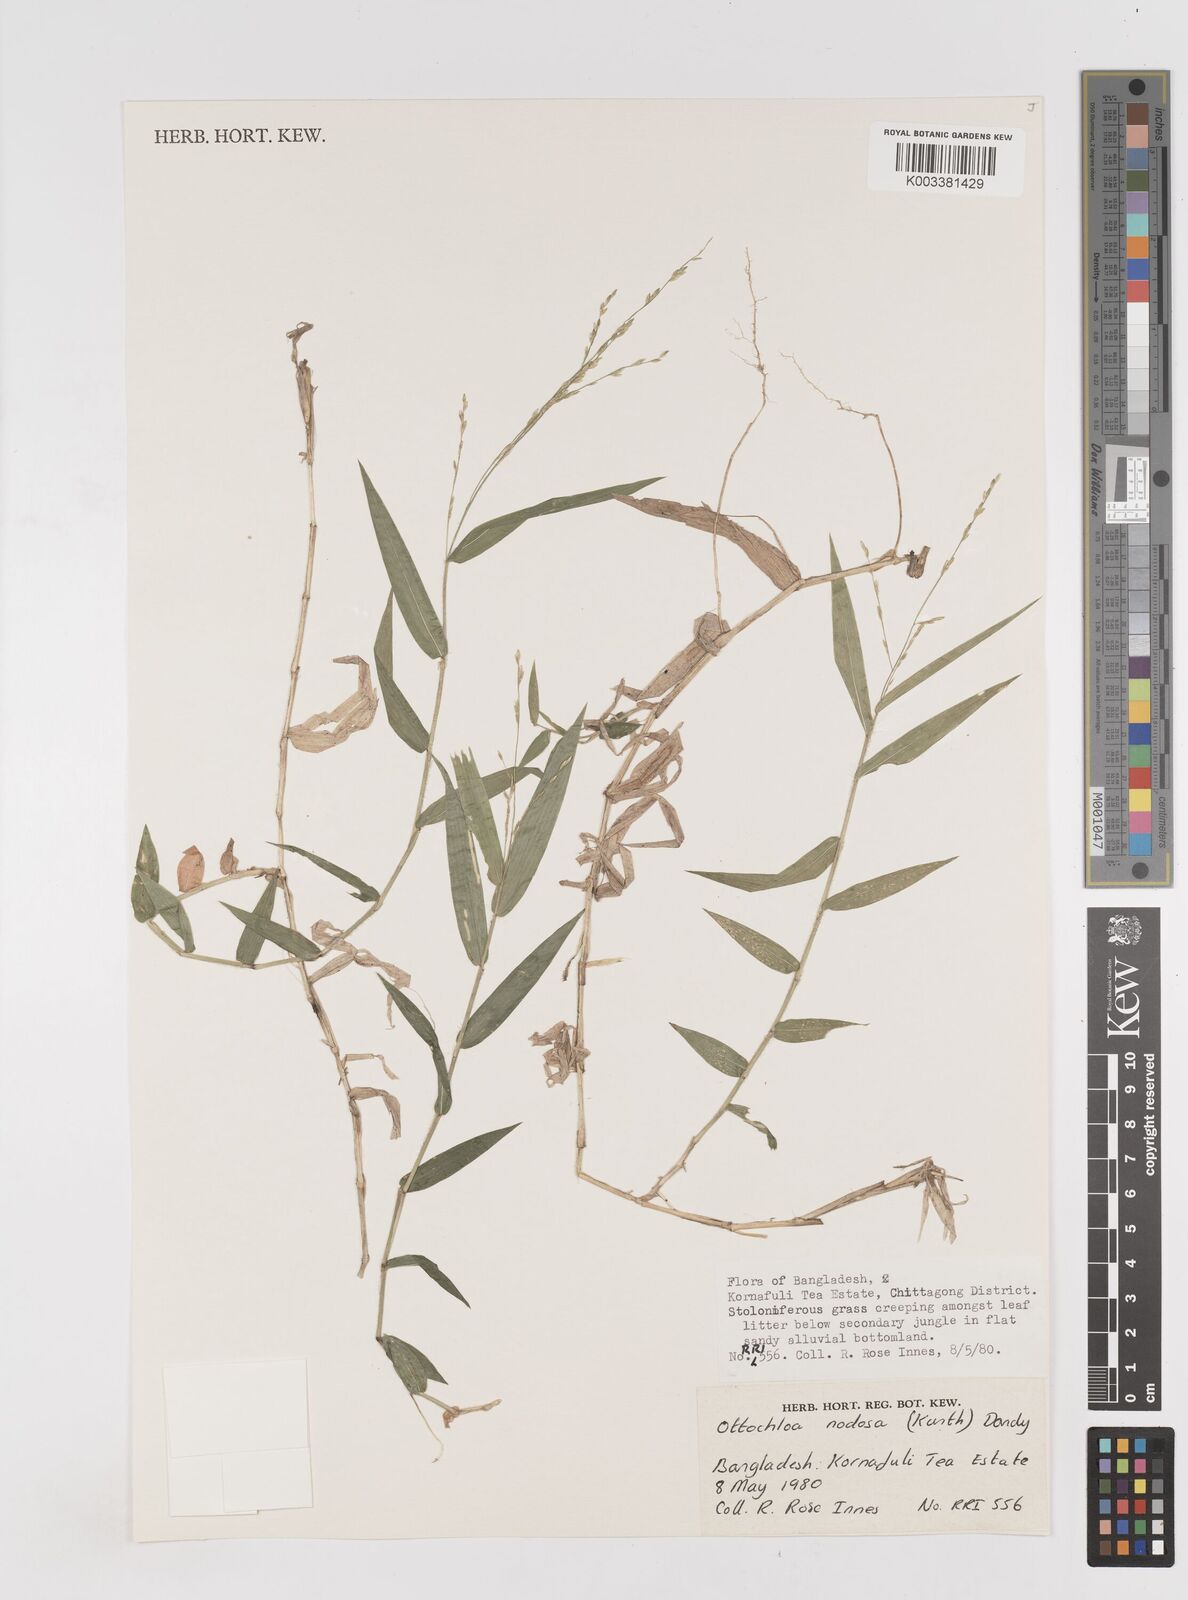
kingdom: Plantae
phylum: Tracheophyta
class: Liliopsida
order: Poales
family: Poaceae
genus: Ottochloa
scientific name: Ottochloa
